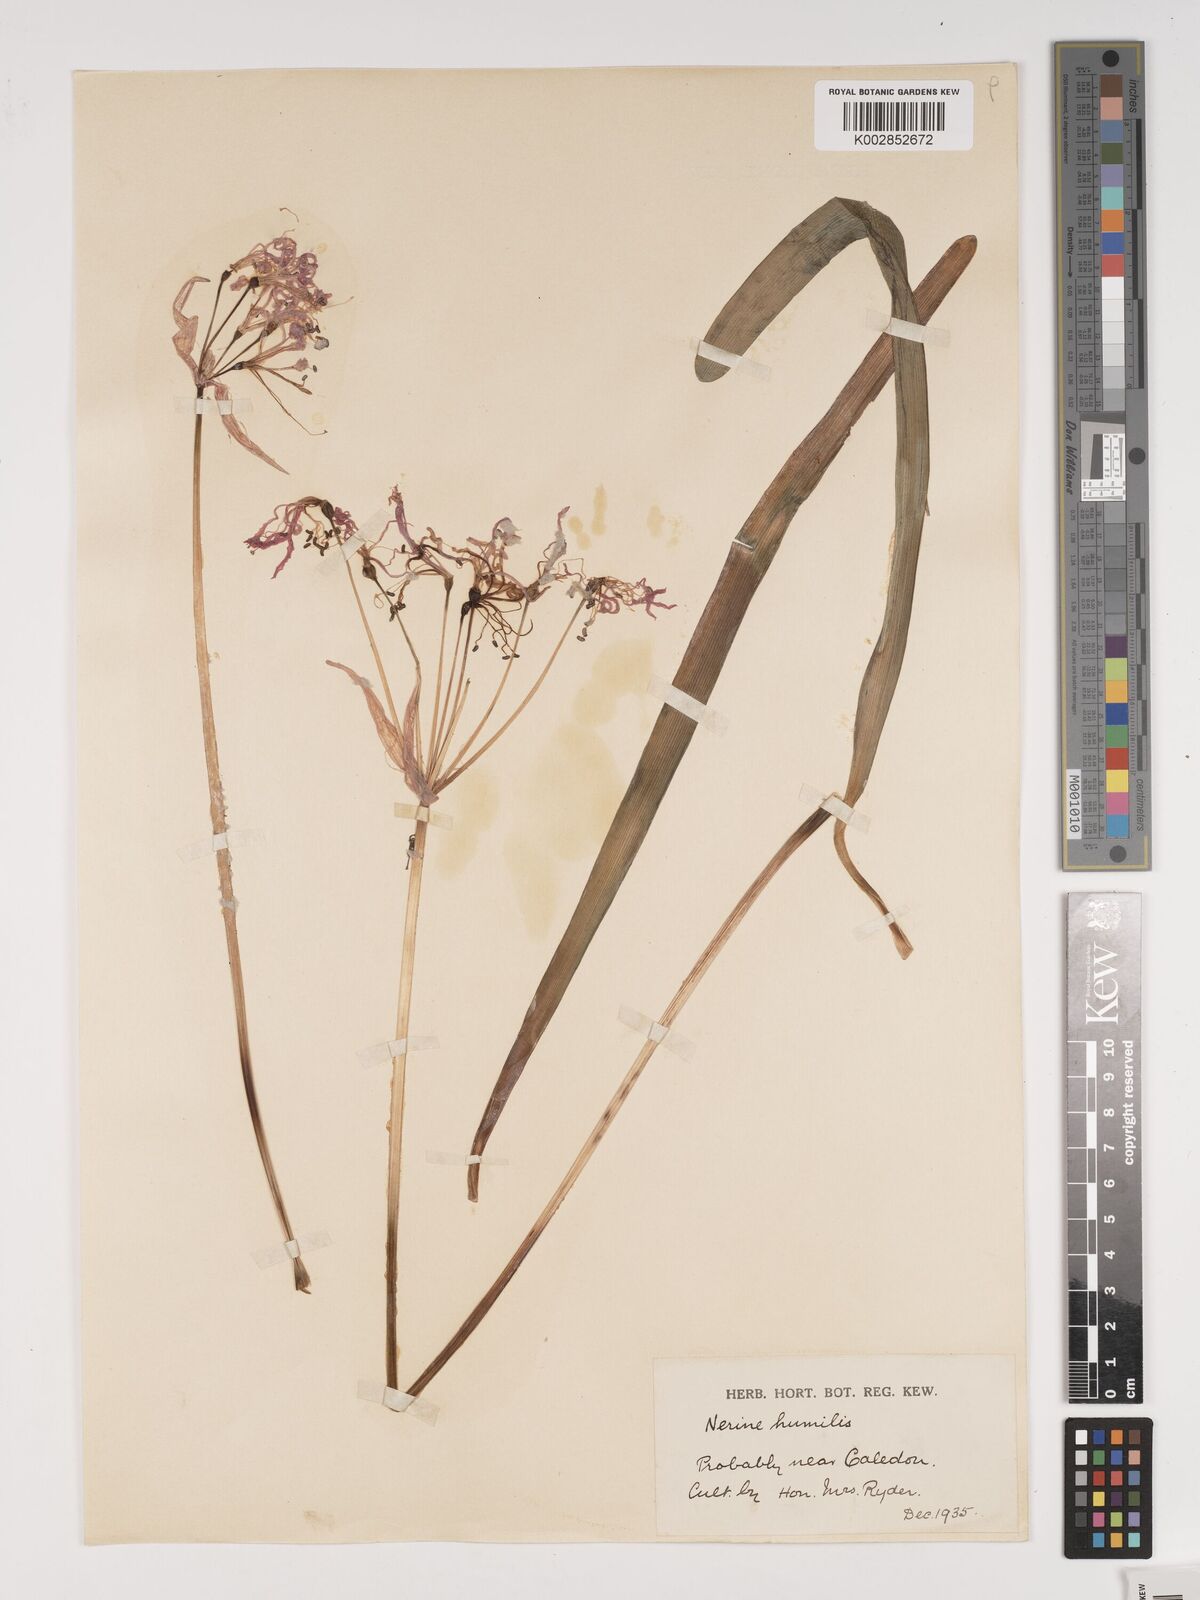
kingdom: Plantae
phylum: Tracheophyta
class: Liliopsida
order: Asparagales
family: Amaryllidaceae
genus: Nerine
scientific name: Nerine humilis
